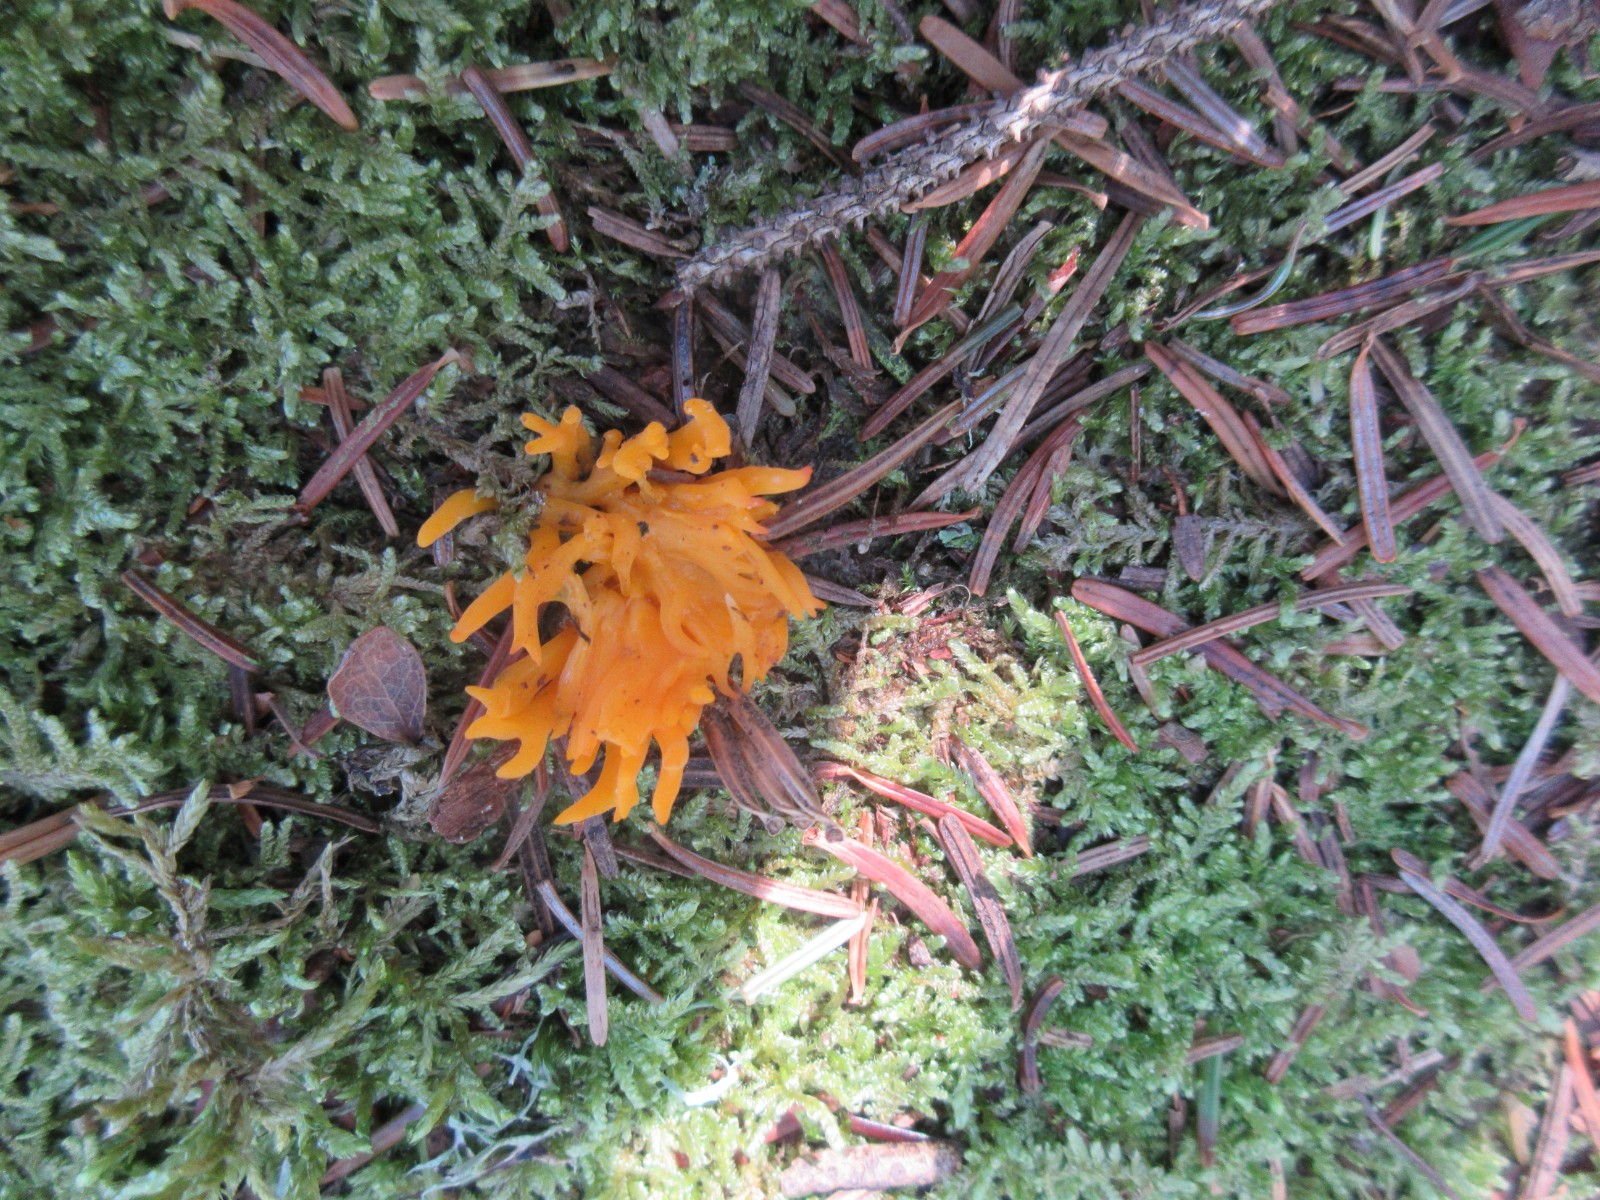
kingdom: Fungi
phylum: Basidiomycota
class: Dacrymycetes
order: Dacrymycetales
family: Dacrymycetaceae
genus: Calocera
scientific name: Calocera viscosa
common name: almindelig guldgaffel
